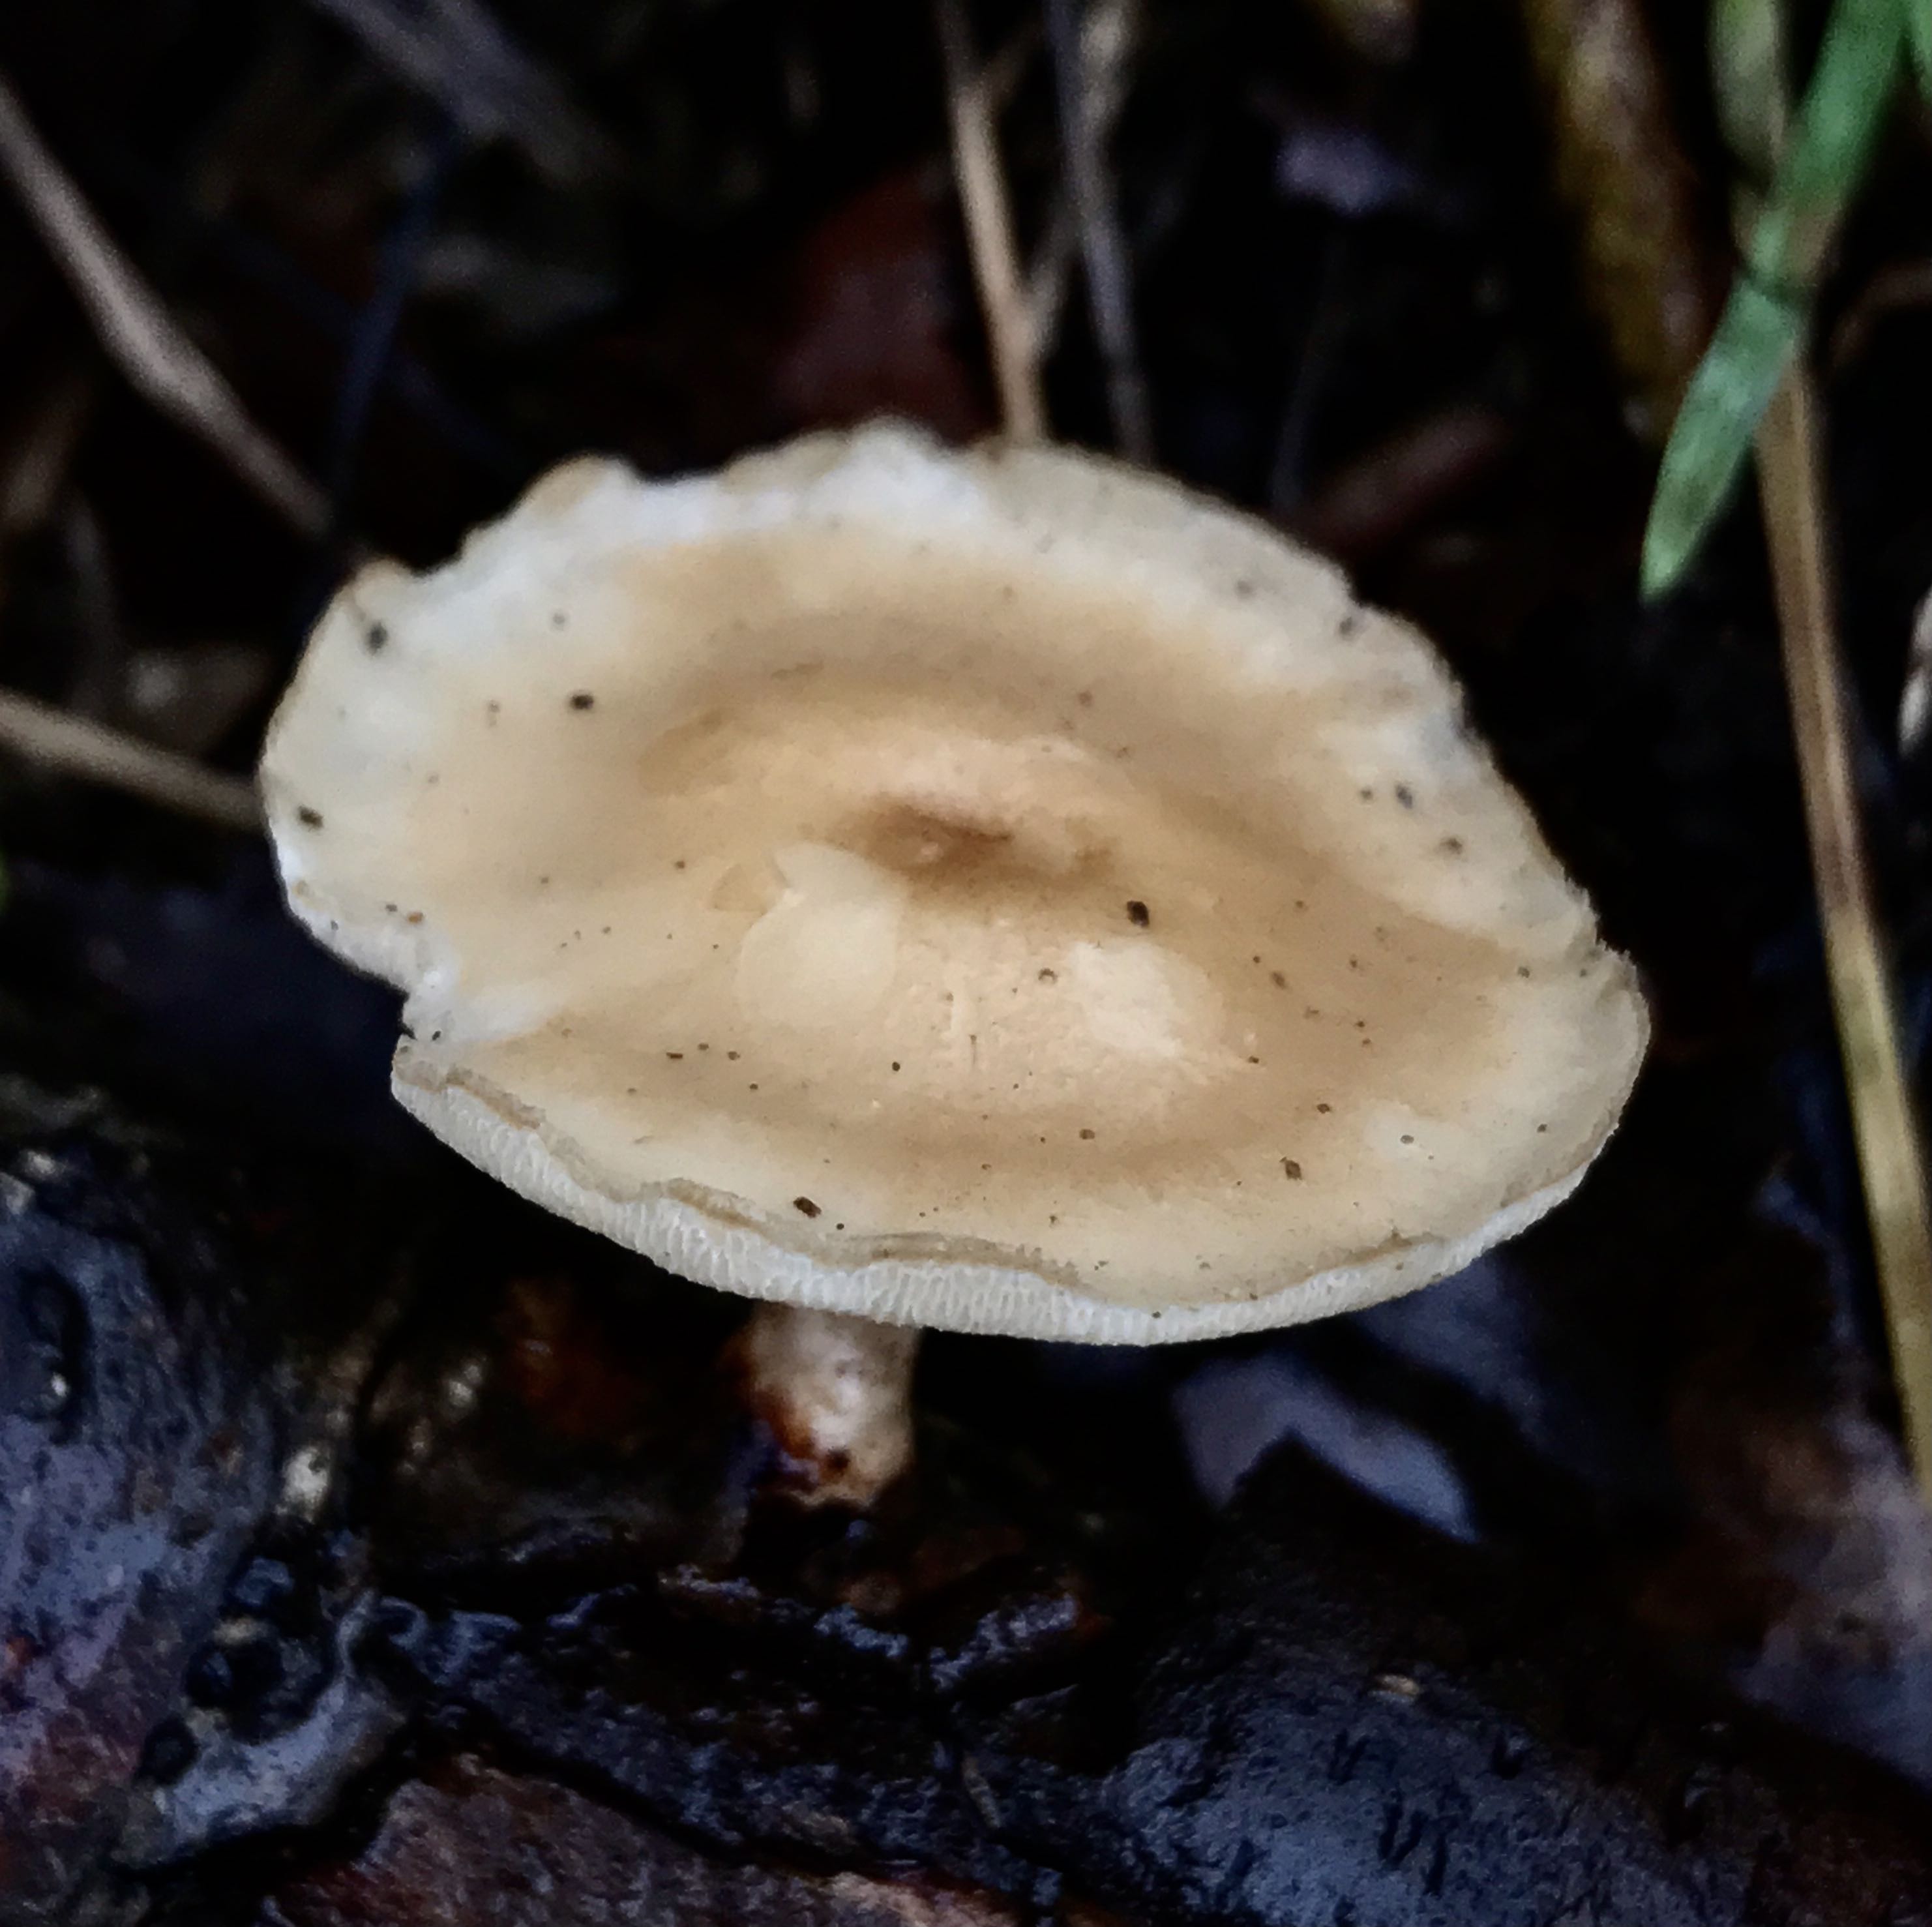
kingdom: Fungi
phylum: Basidiomycota
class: Agaricomycetes
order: Polyporales
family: Polyporaceae
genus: Lentinus
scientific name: Lentinus brumalis
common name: vinter-stilkporesvamp
